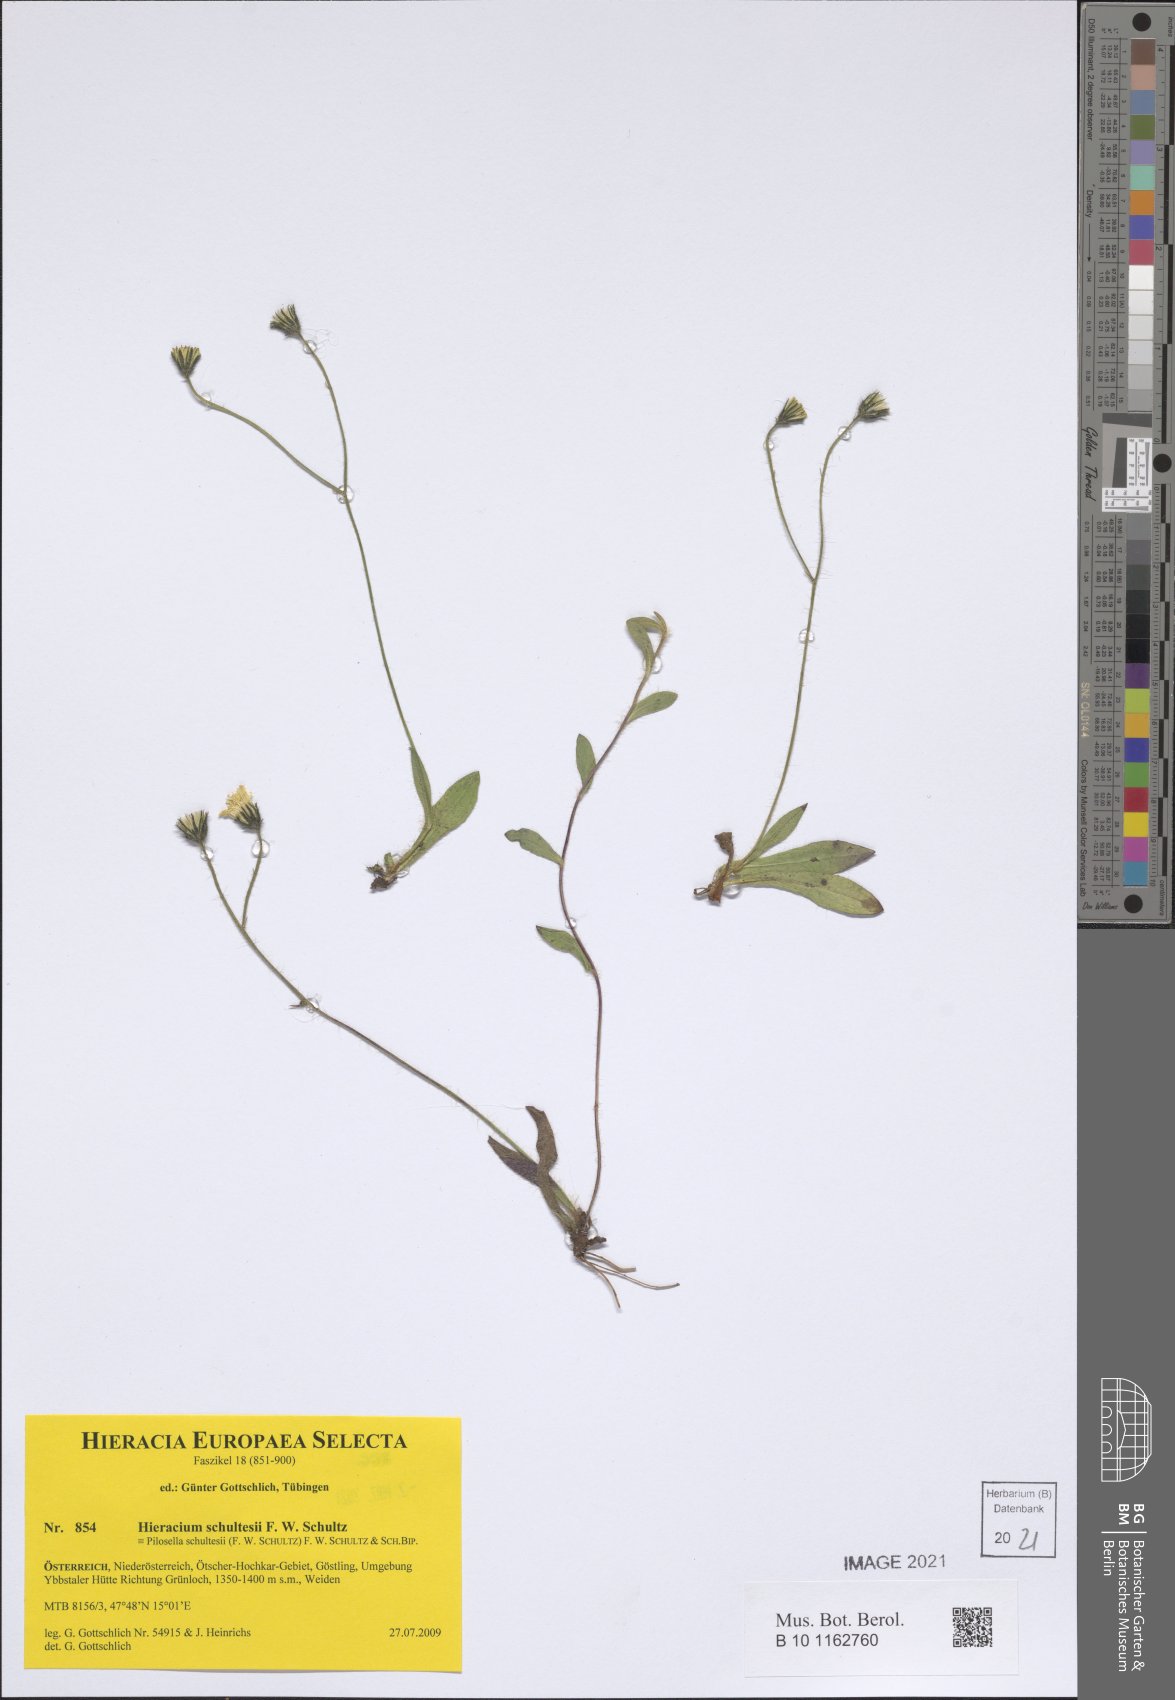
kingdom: Plantae
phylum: Tracheophyta
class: Magnoliopsida
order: Asterales
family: Asteraceae
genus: Pilosella
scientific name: Pilosella schultesii
